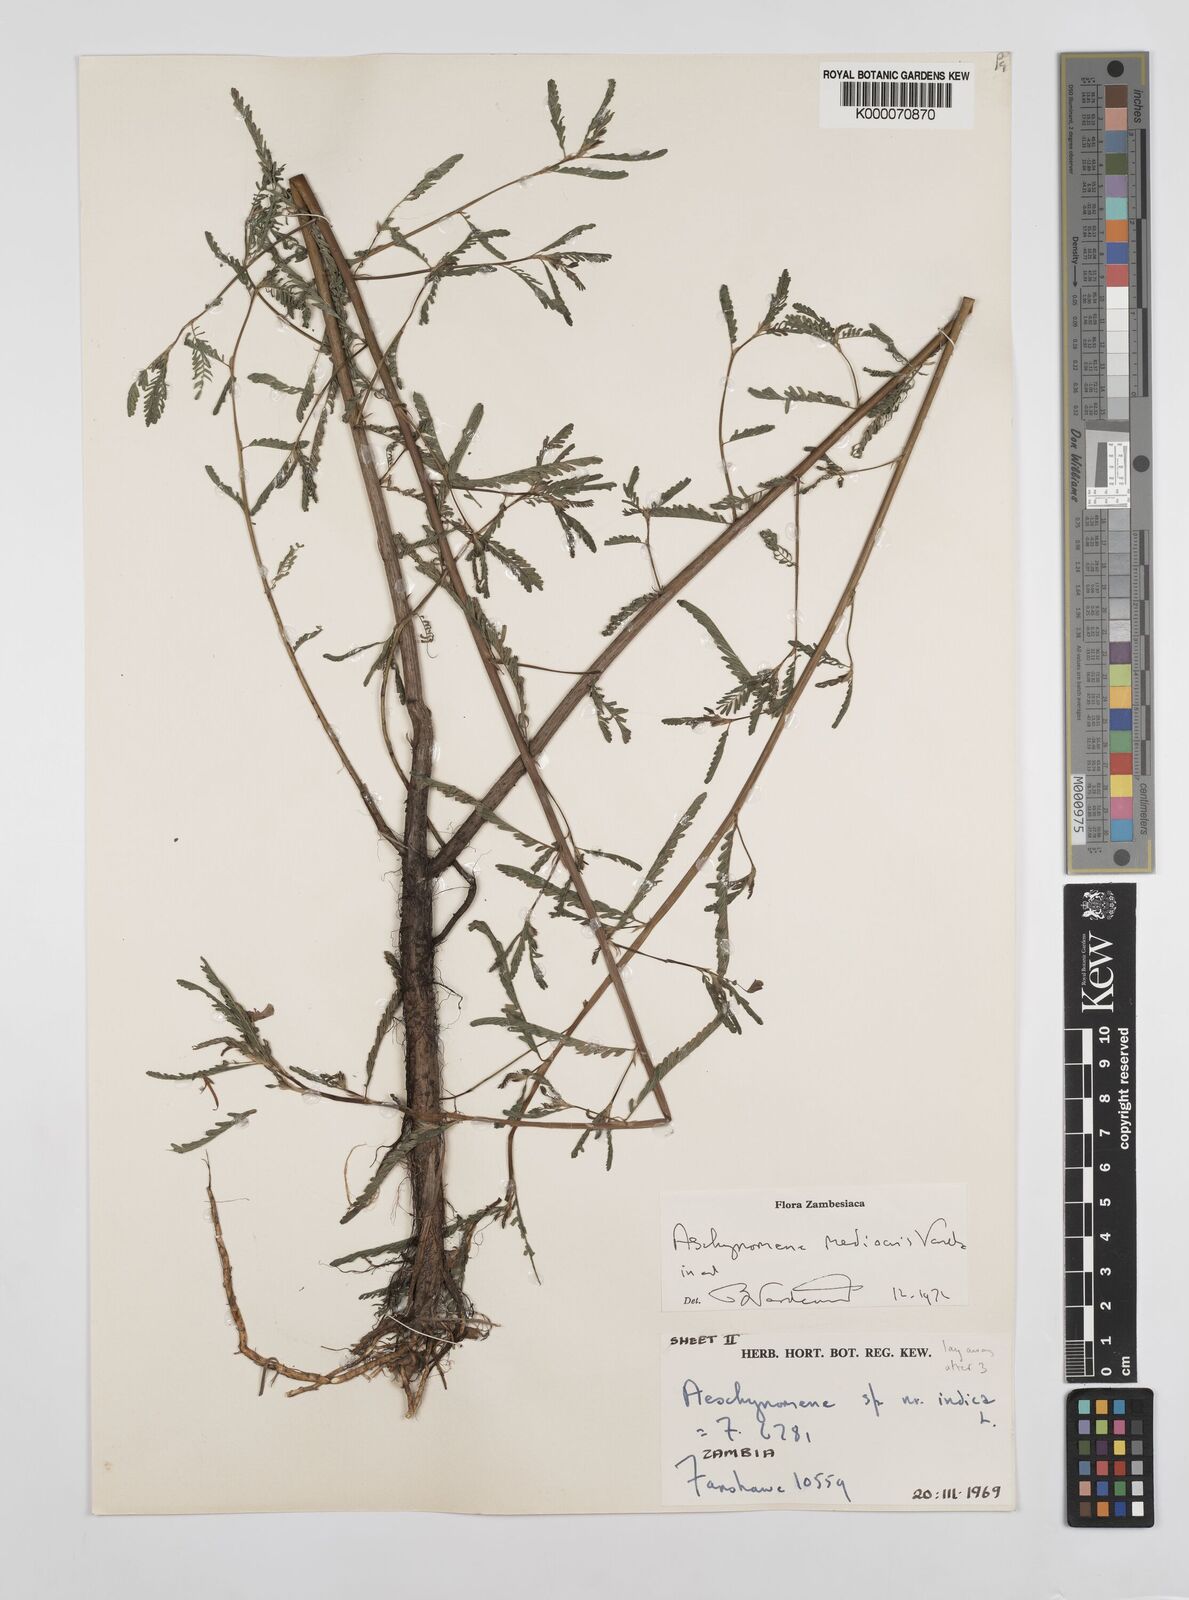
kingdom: Plantae
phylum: Tracheophyta
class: Magnoliopsida
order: Fabales
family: Fabaceae
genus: Aeschynomene
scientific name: Aeschynomene mediocris
